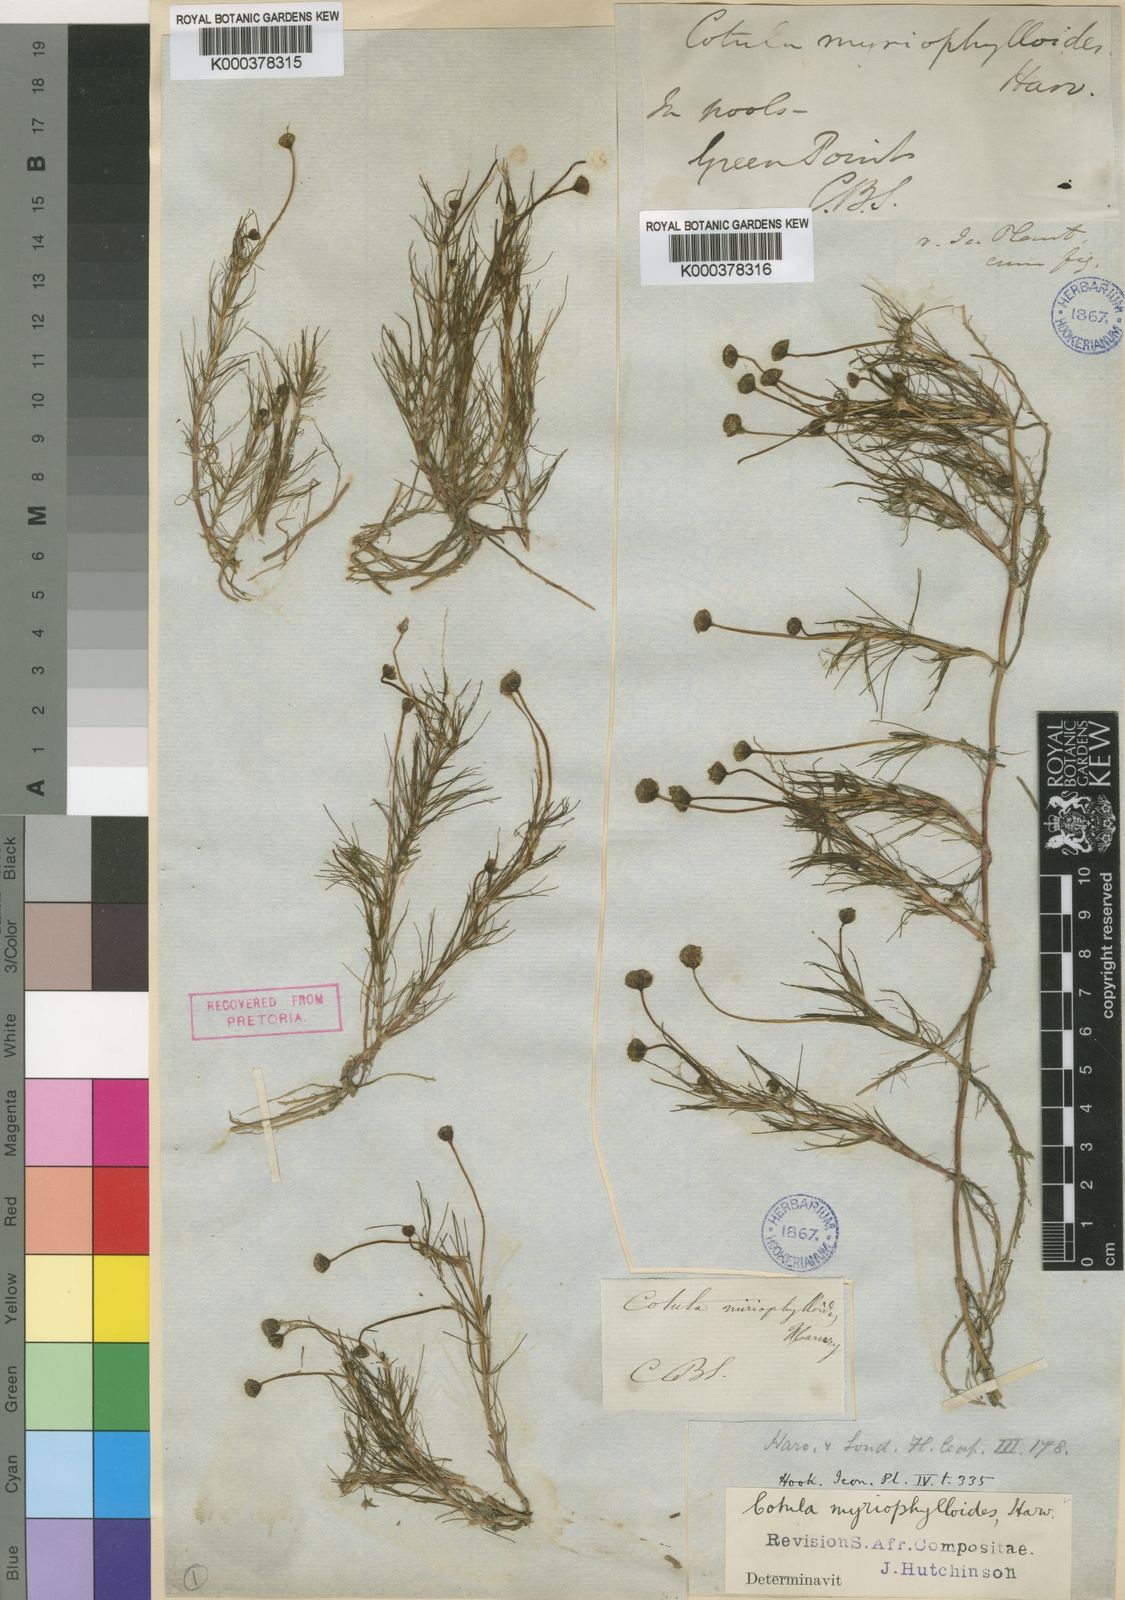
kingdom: Plantae
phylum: Tracheophyta
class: Magnoliopsida
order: Asterales
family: Asteraceae
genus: Cotula
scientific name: Cotula
